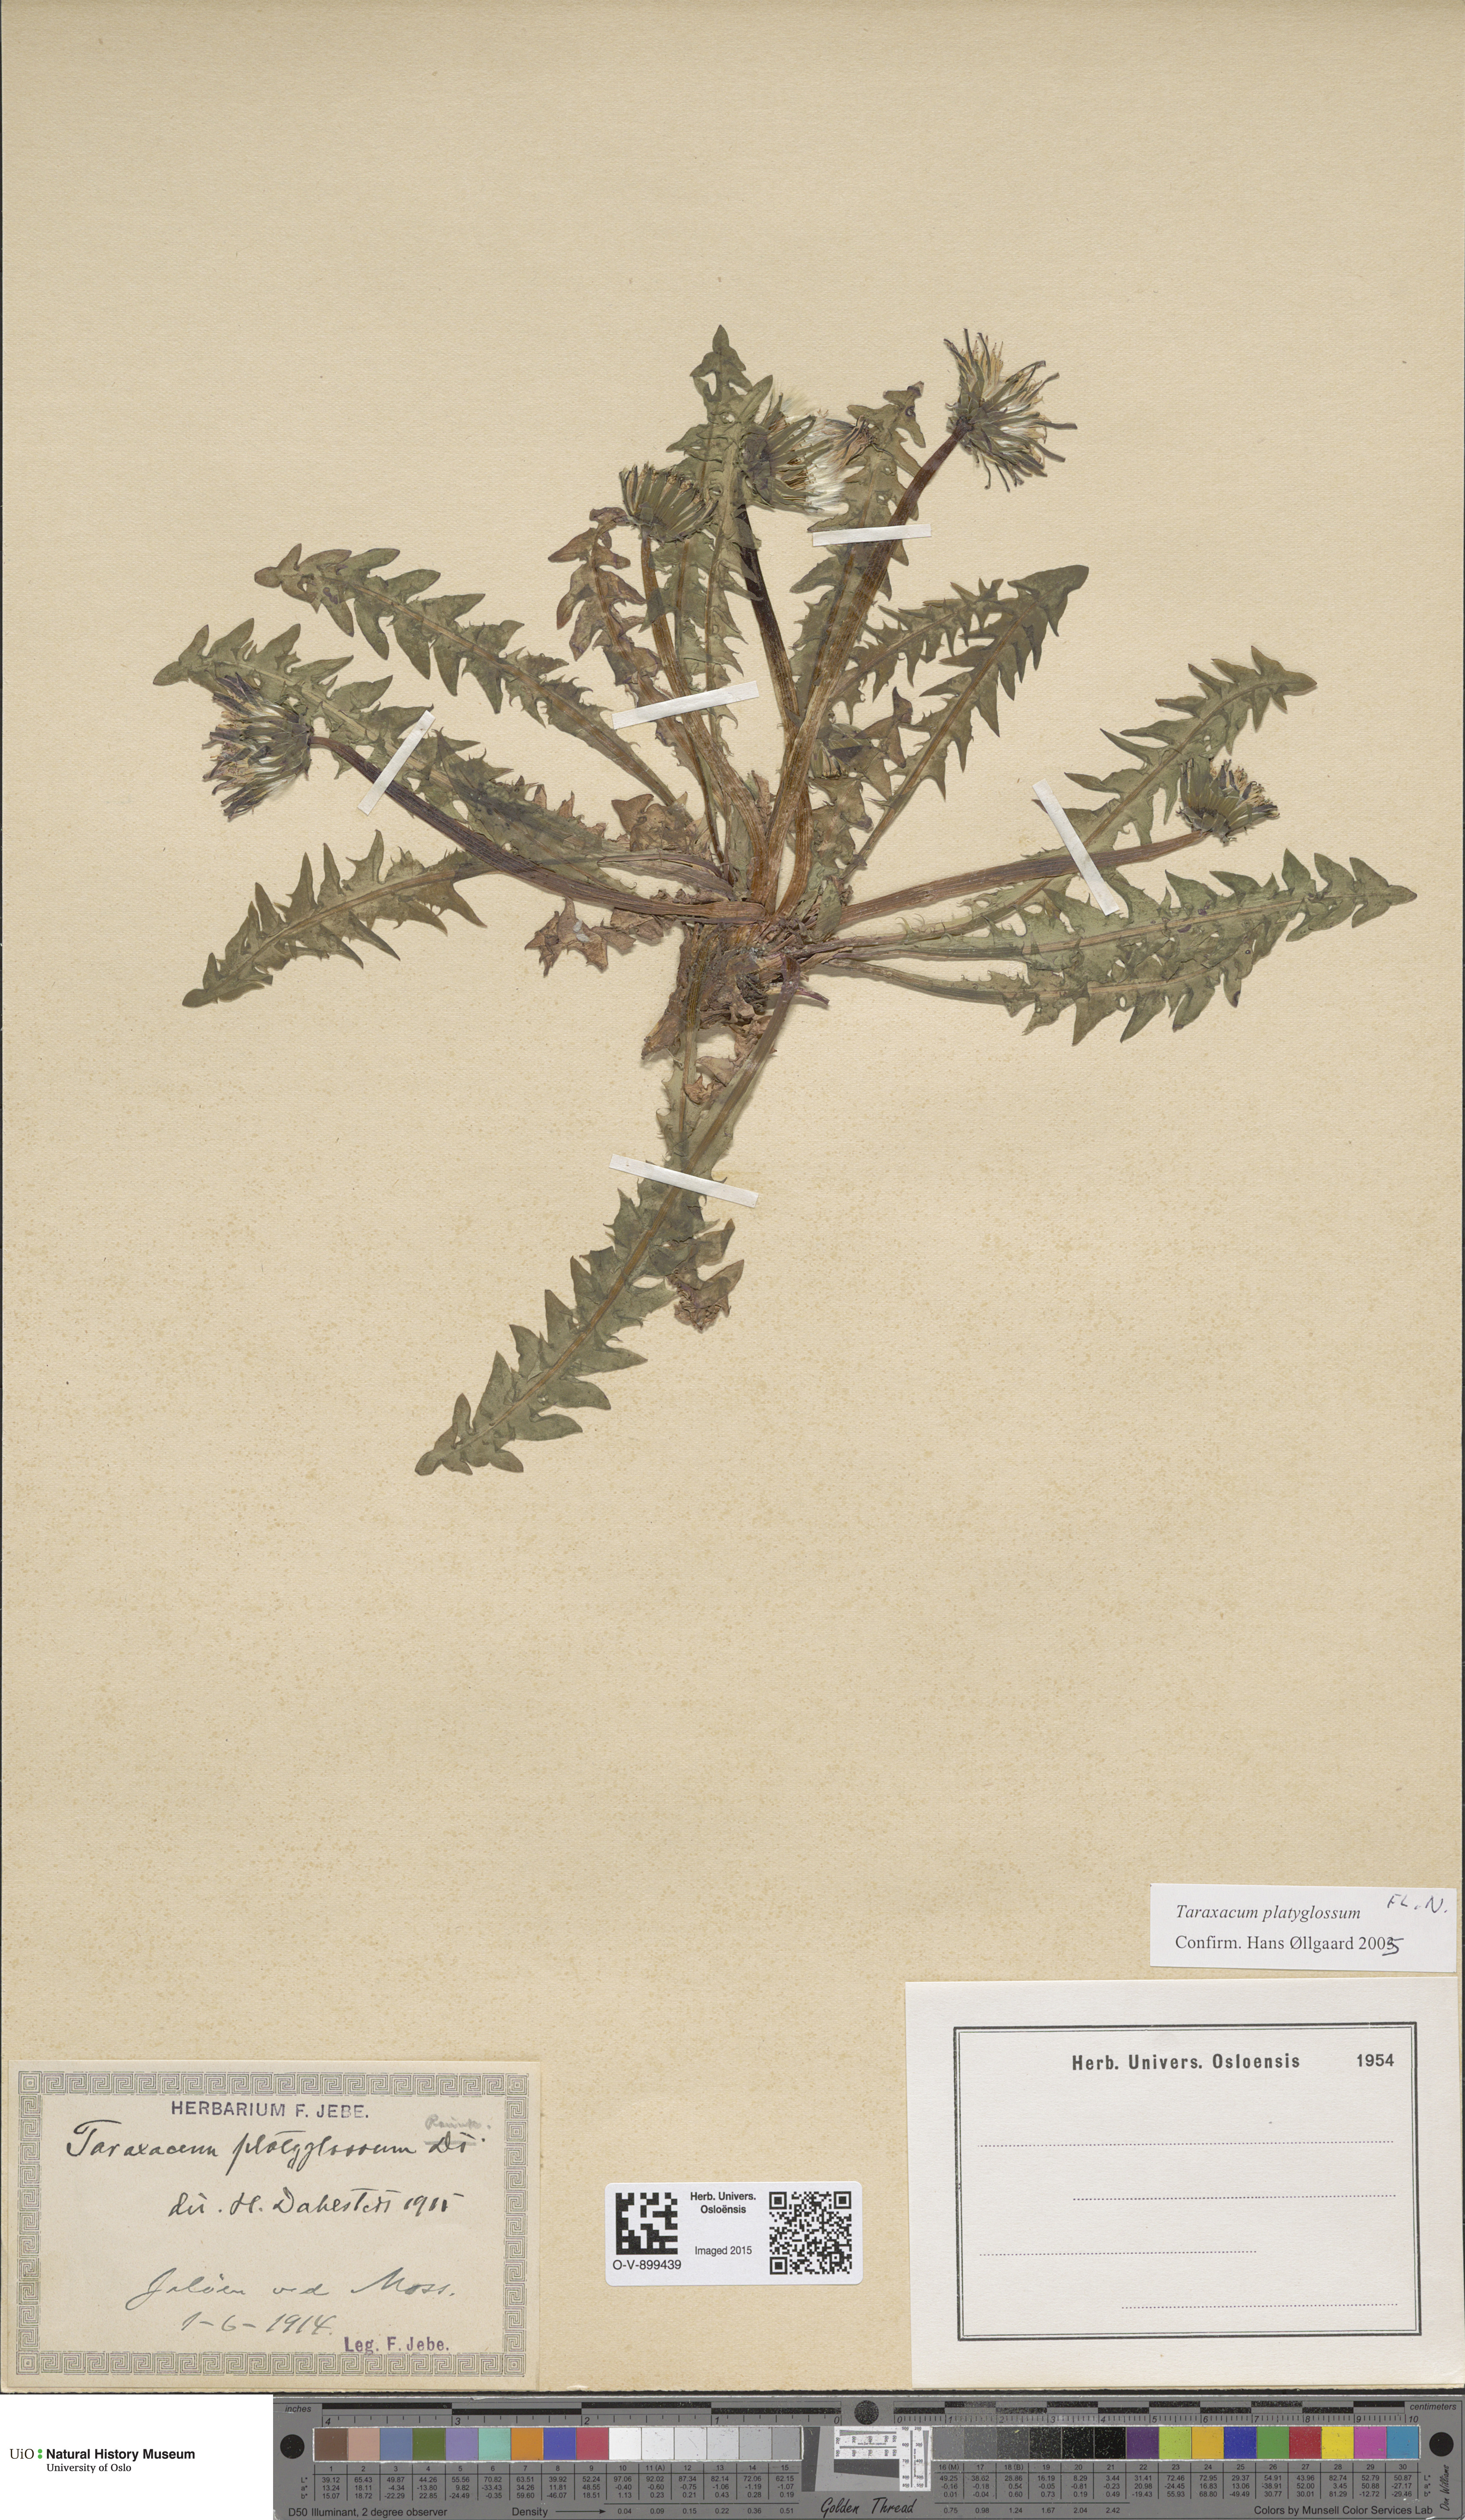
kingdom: Plantae
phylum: Tracheophyta
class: Magnoliopsida
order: Asterales
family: Asteraceae
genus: Taraxacum
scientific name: Taraxacum platyglossum
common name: Tongue-leaved dandelion
